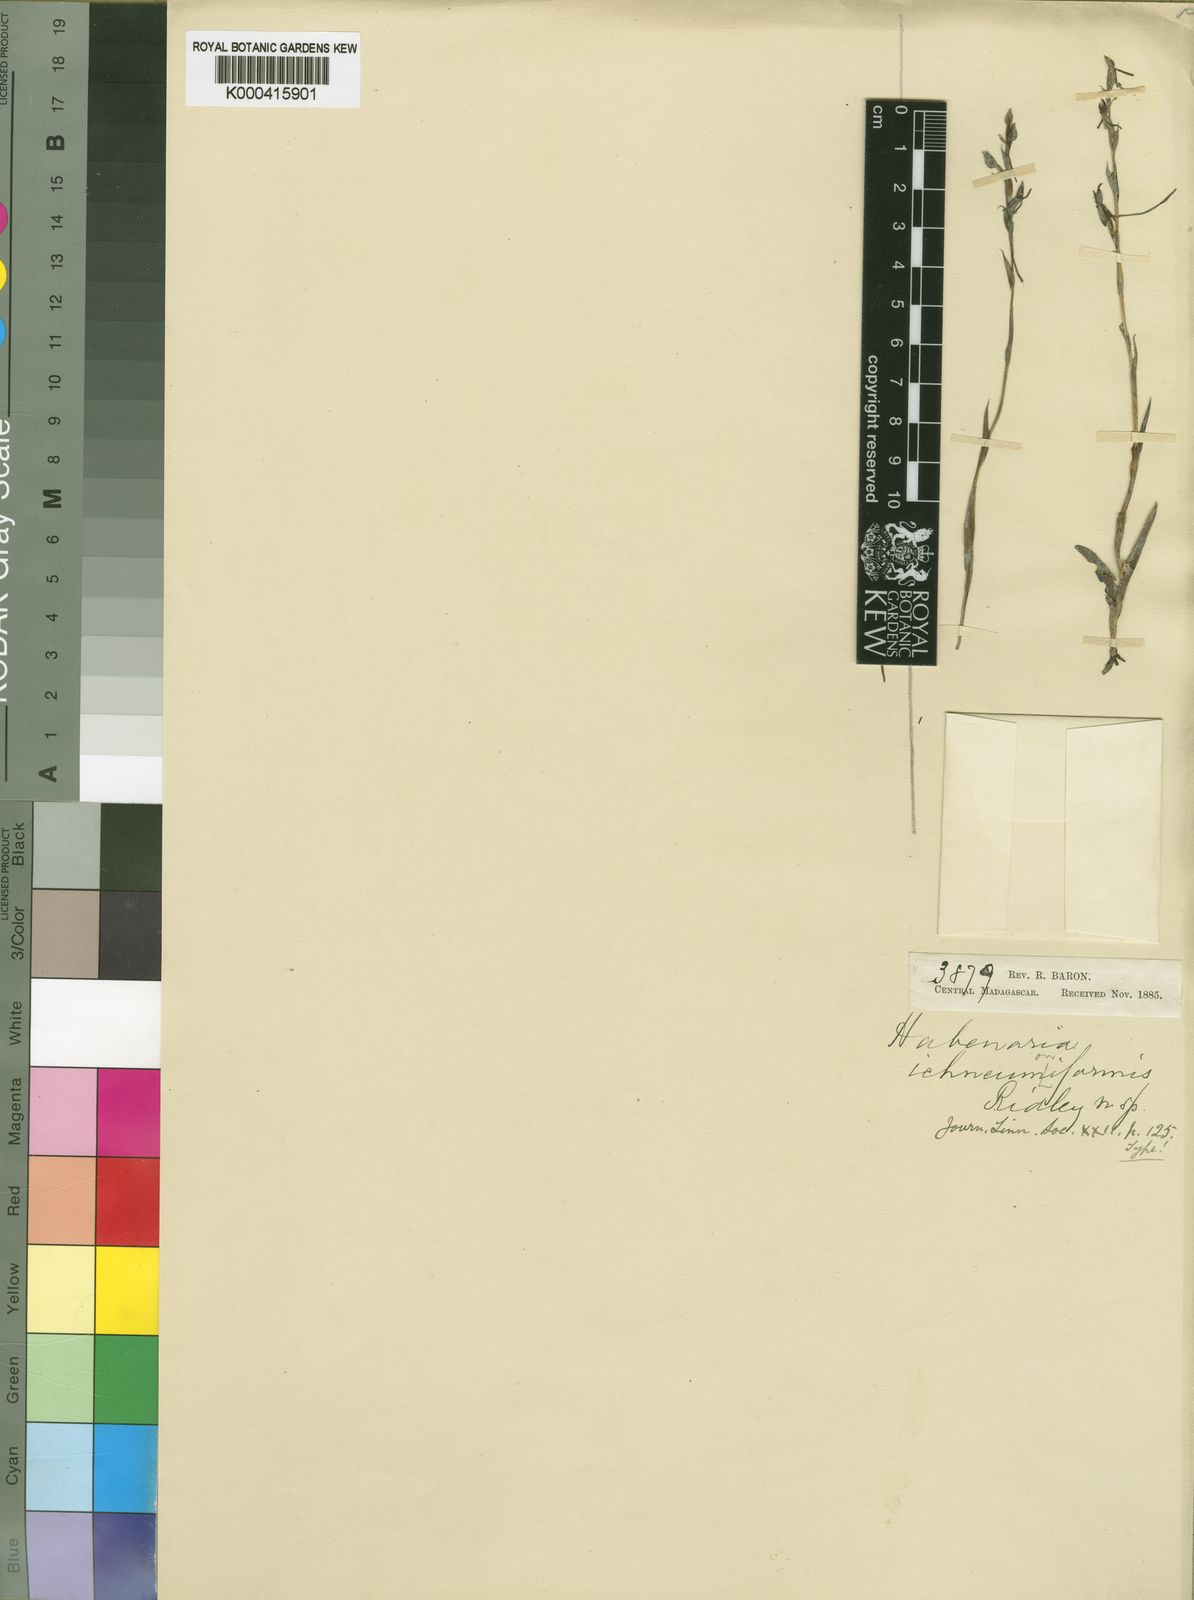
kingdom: Plantae
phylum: Tracheophyta
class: Liliopsida
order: Asparagales
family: Orchidaceae
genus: Habenaria
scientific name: Habenaria simplex
